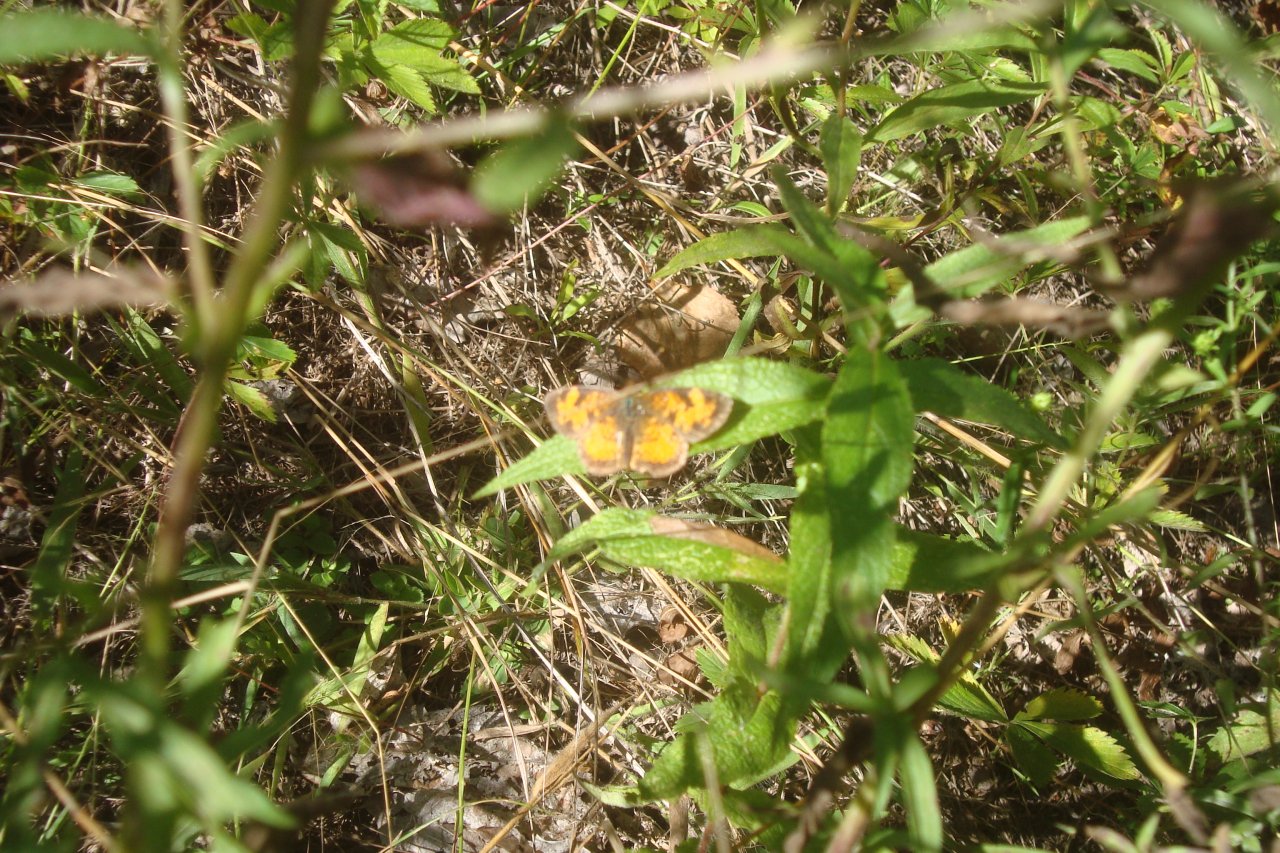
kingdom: Animalia
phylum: Arthropoda
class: Insecta
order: Lepidoptera
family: Nymphalidae
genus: Phyciodes
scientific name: Phyciodes tharos
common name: Northern Crescent
